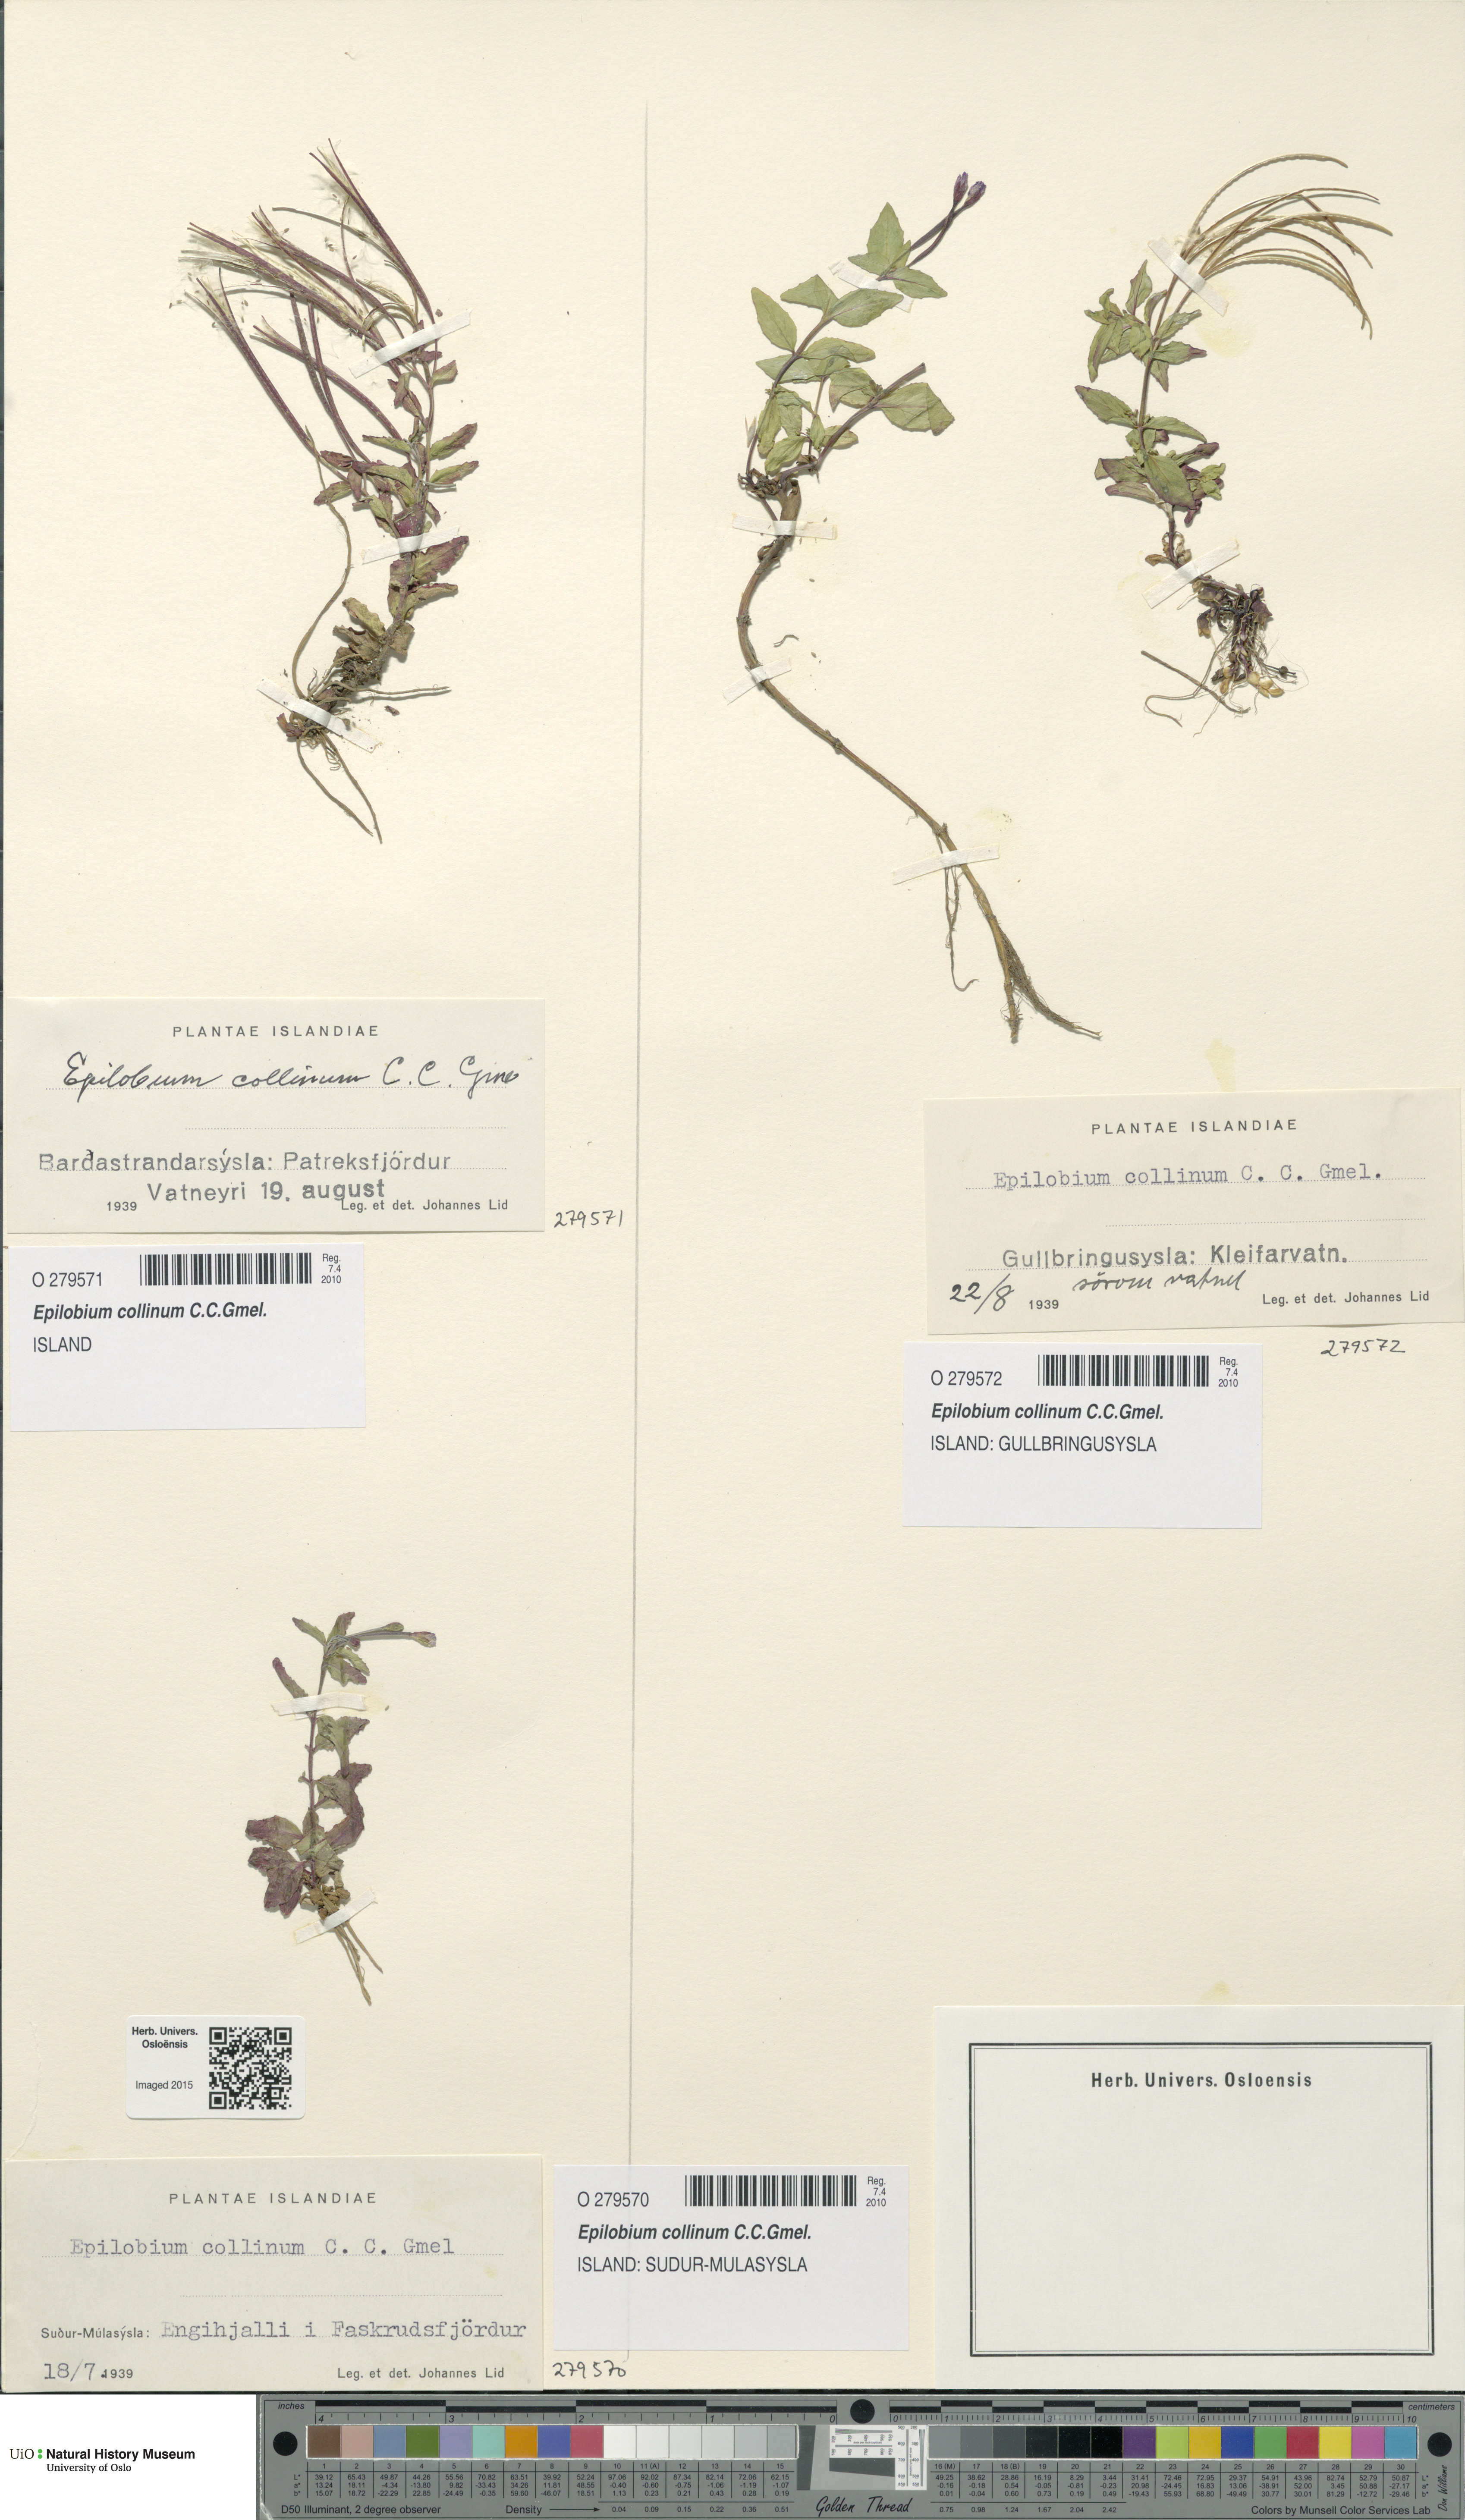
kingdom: Plantae
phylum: Tracheophyta
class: Magnoliopsida
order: Myrtales
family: Onagraceae
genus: Epilobium
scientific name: Epilobium collinum
